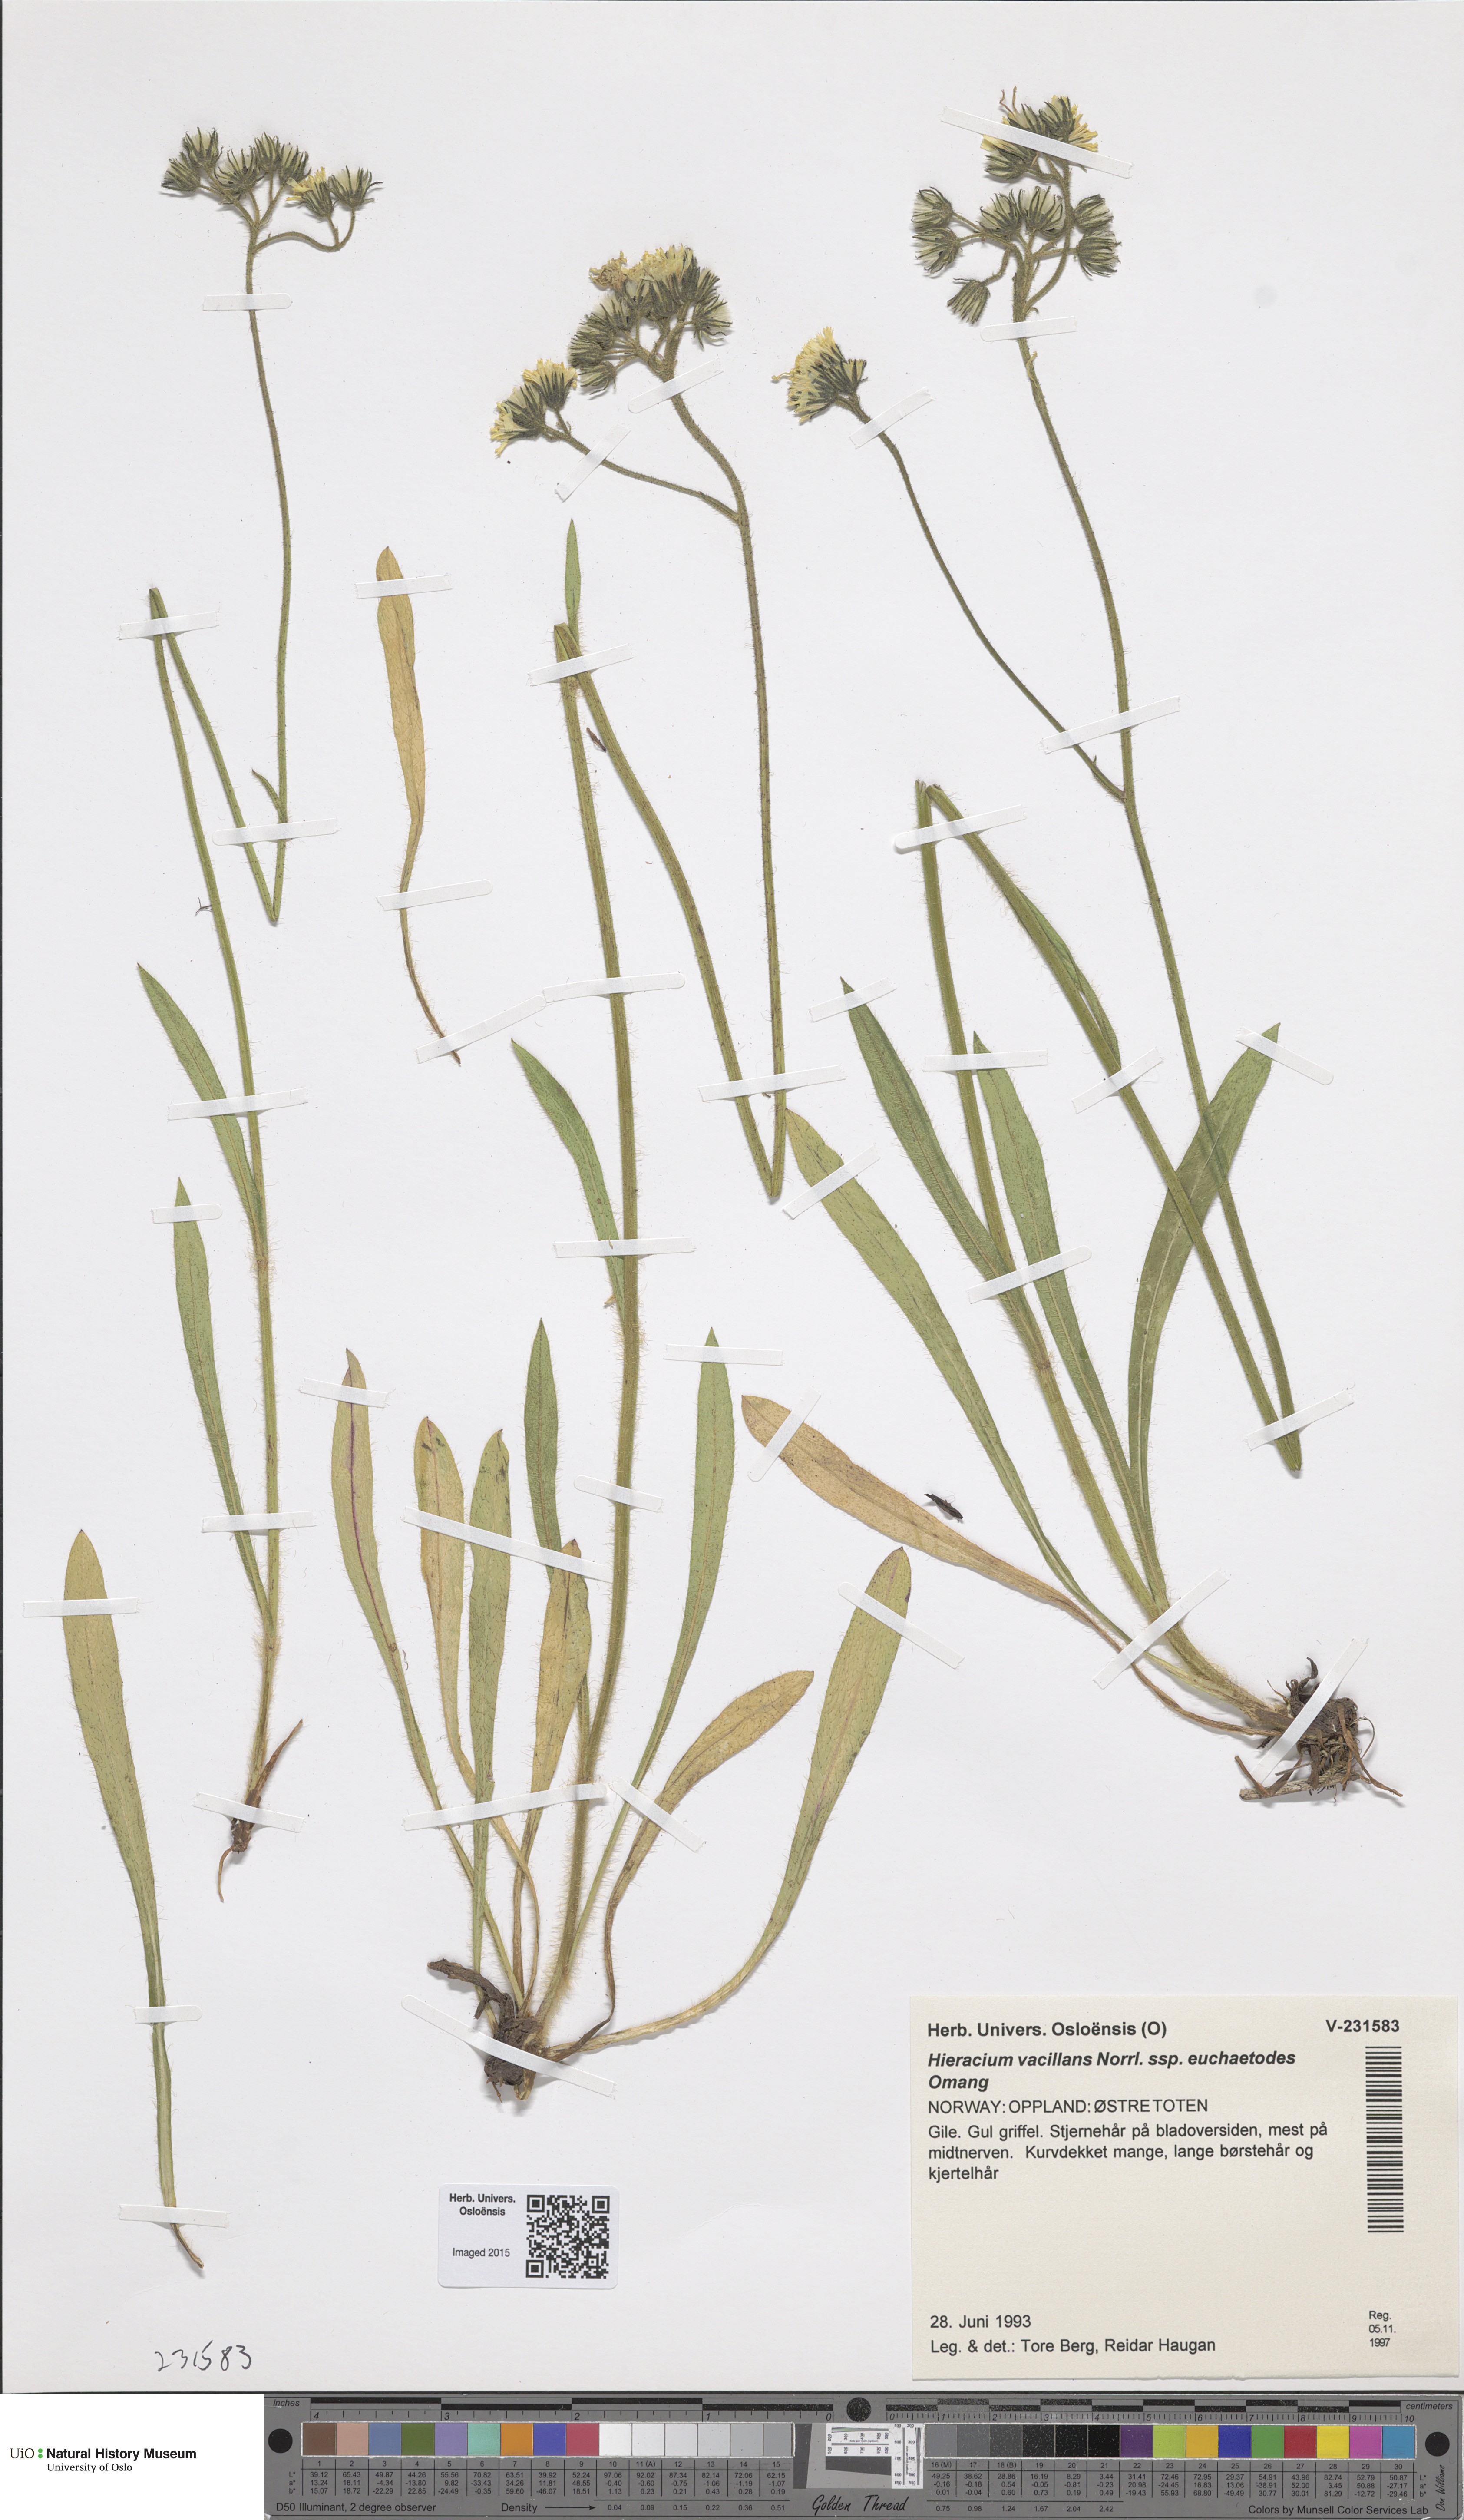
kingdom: Plantae
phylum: Tracheophyta
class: Magnoliopsida
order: Asterales
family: Asteraceae
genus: Pilosella
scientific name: Pilosella glomerata
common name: Queen devil hawkweed
